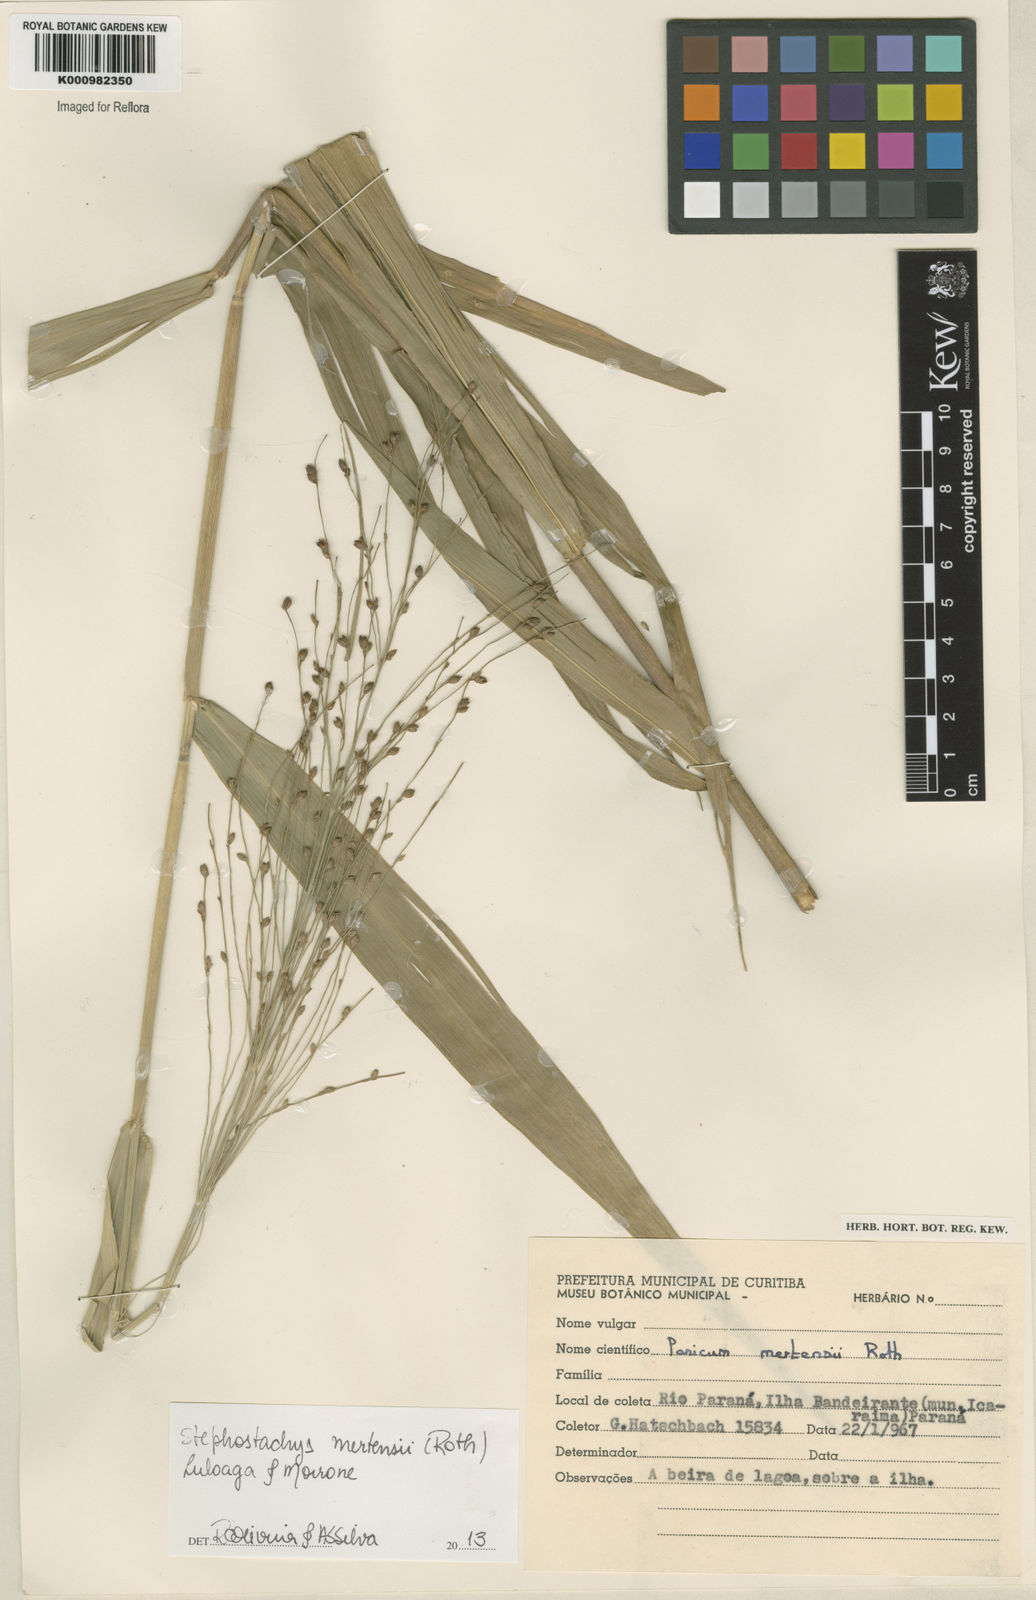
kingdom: Plantae
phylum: Tracheophyta
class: Liliopsida
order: Poales
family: Poaceae
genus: Stephostachys
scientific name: Stephostachys mertensii
